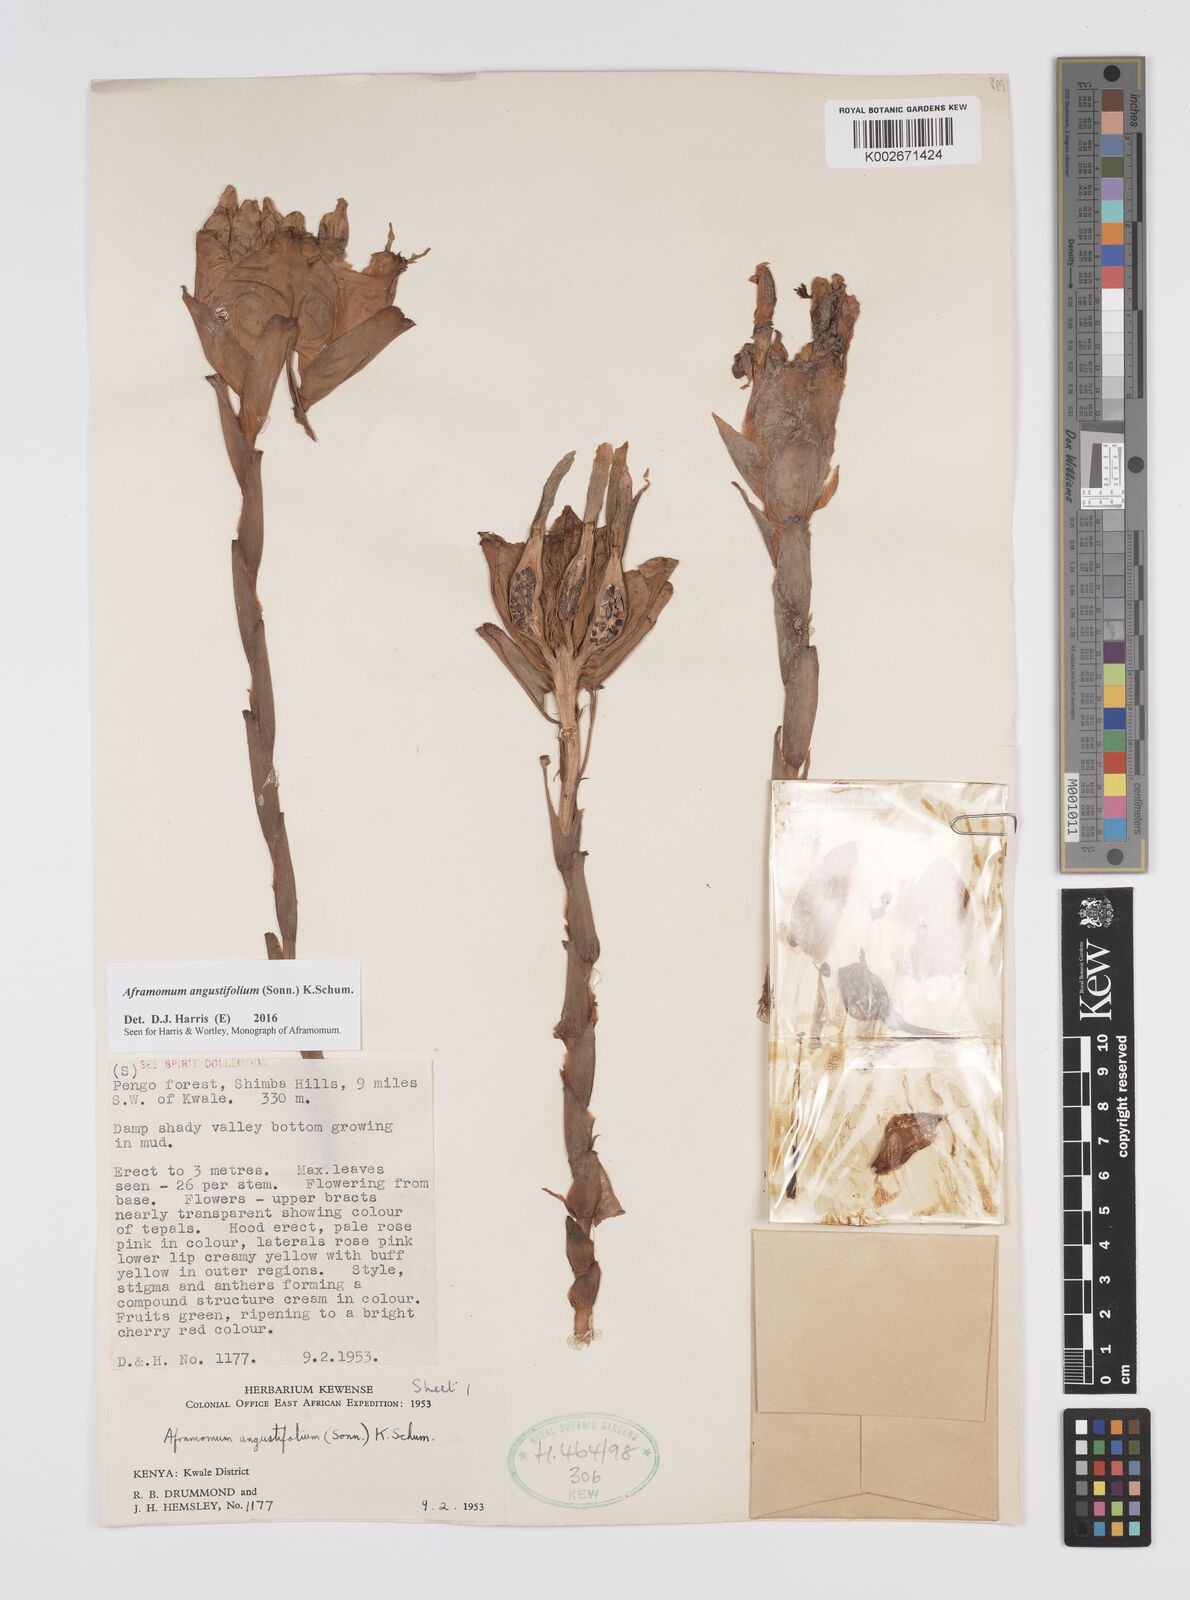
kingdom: Plantae
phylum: Tracheophyta
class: Liliopsida
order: Zingiberales
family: Zingiberaceae
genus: Aframomum
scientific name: Aframomum angustifolium
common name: Guinea grains
